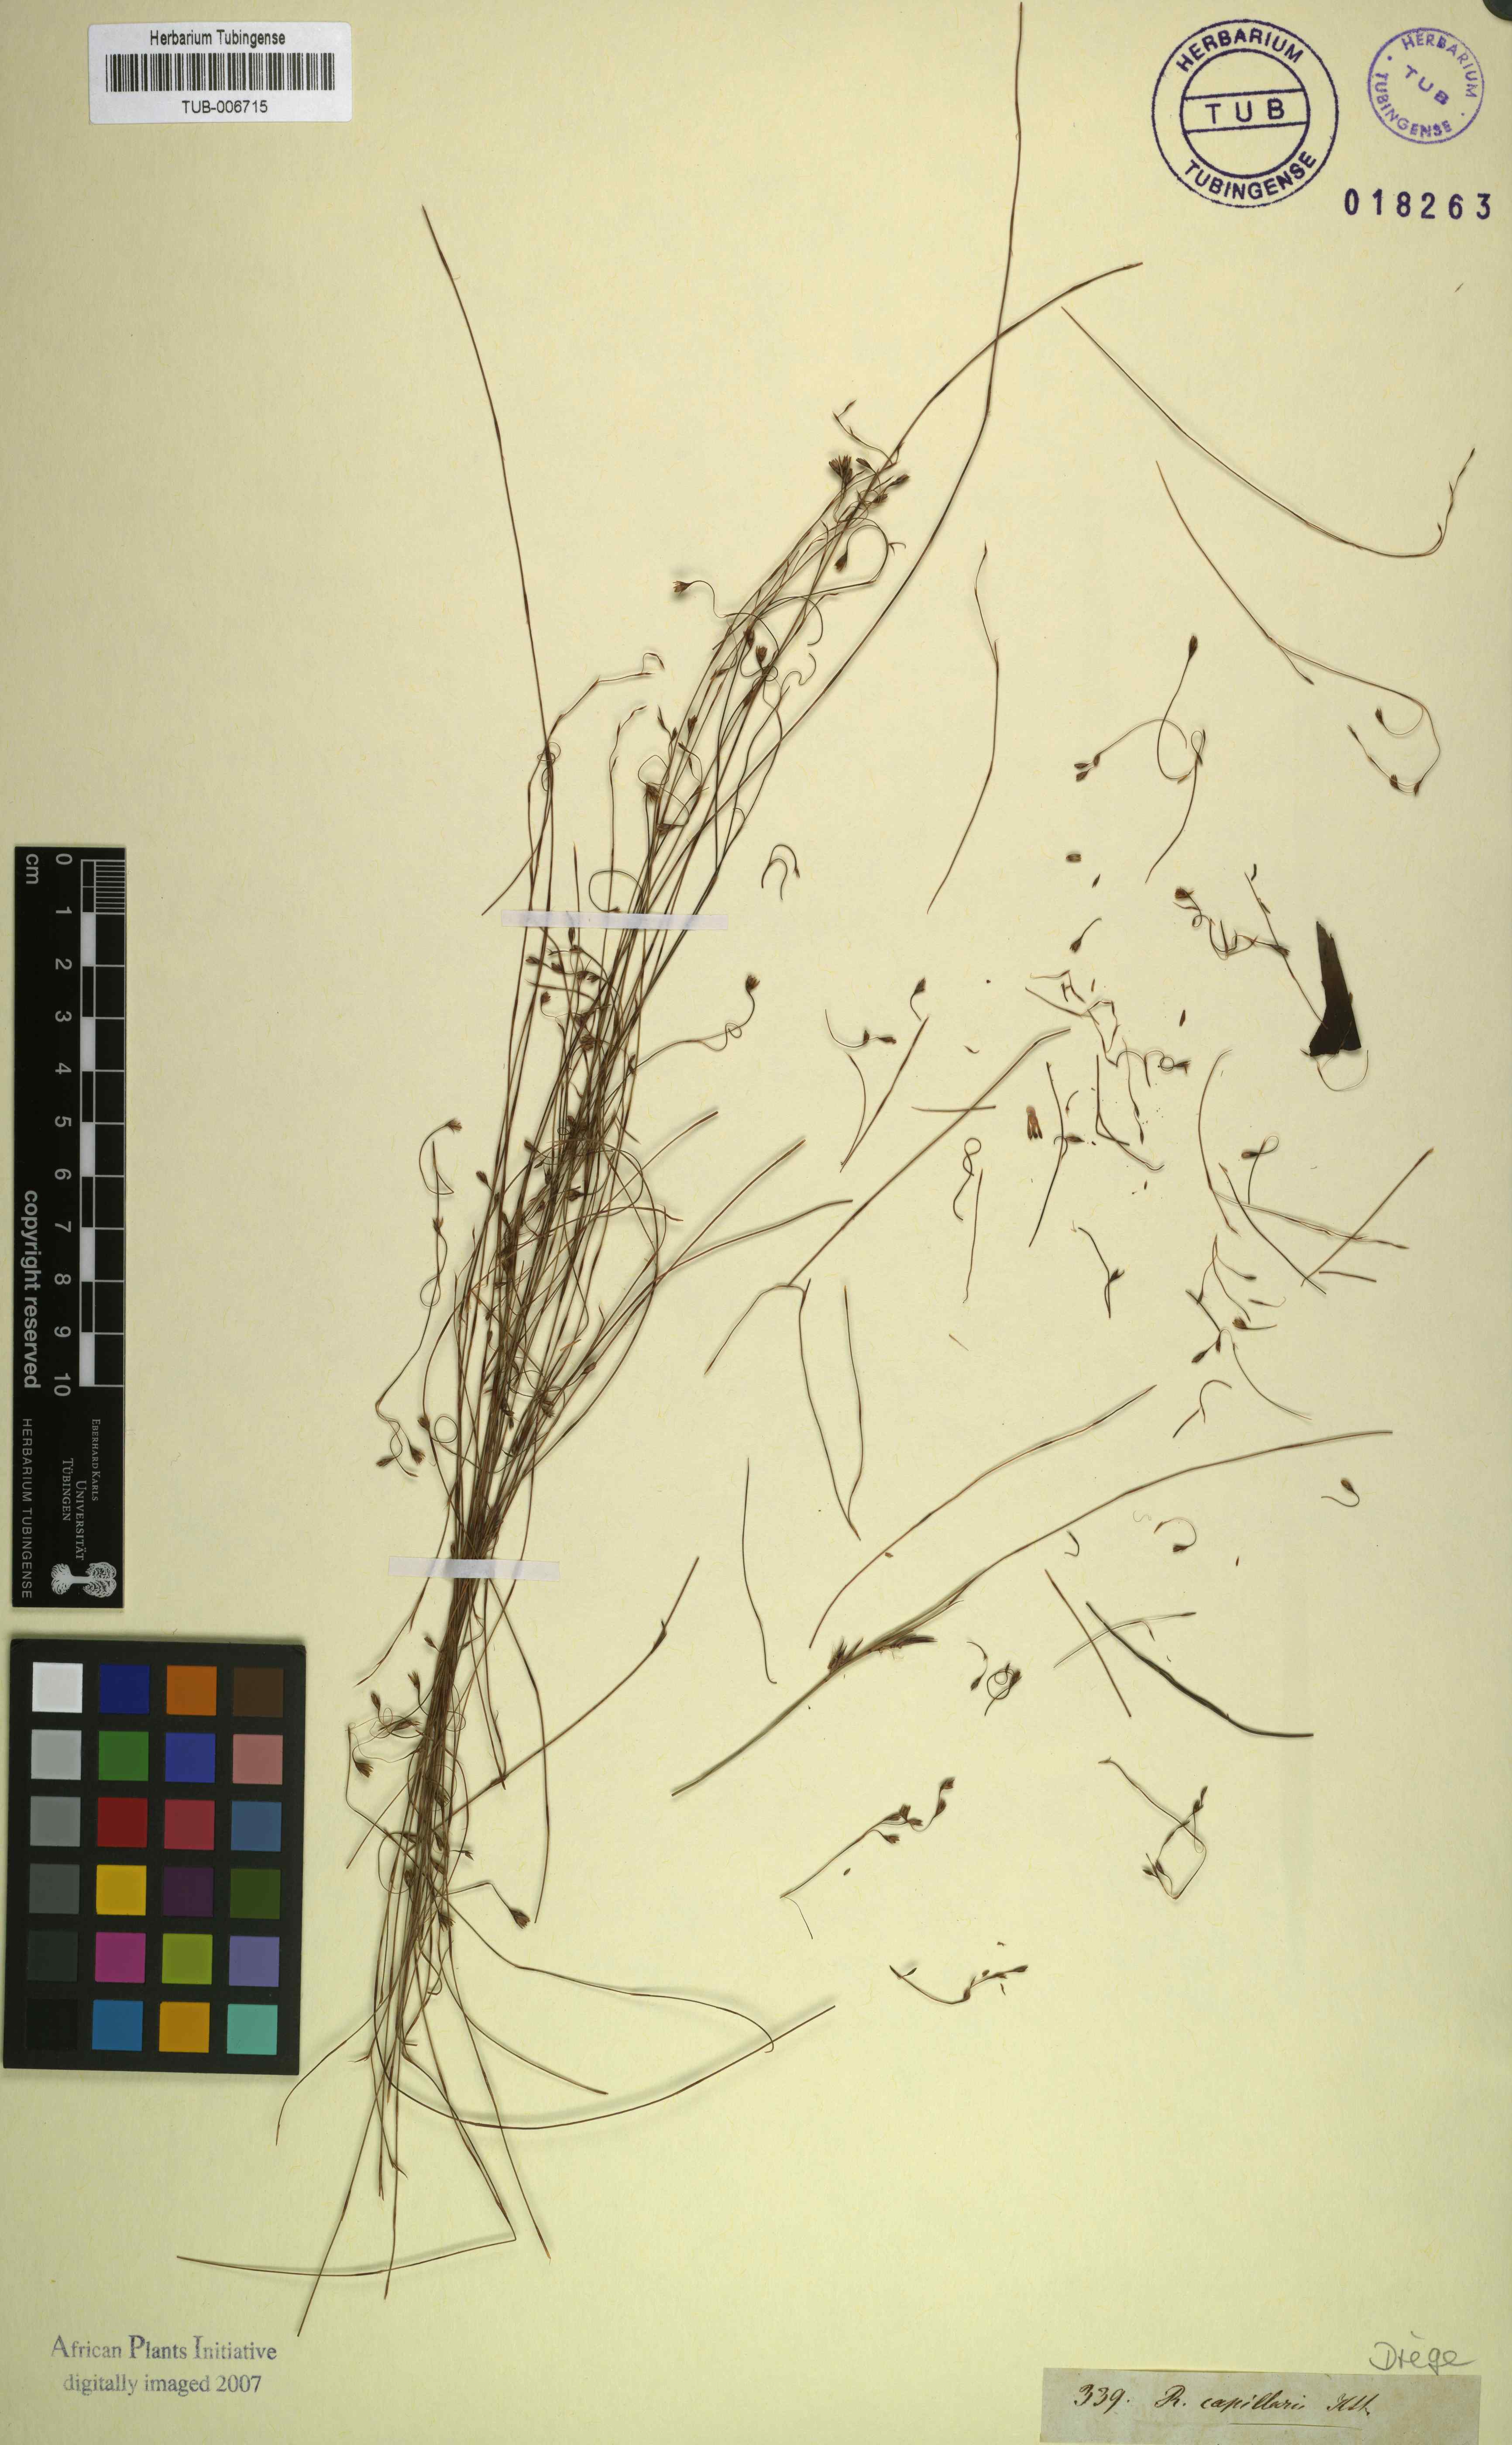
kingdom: Plantae
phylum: Tracheophyta
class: Liliopsida
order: Poales
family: Restionaceae
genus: Restio
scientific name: Restio capillaris
